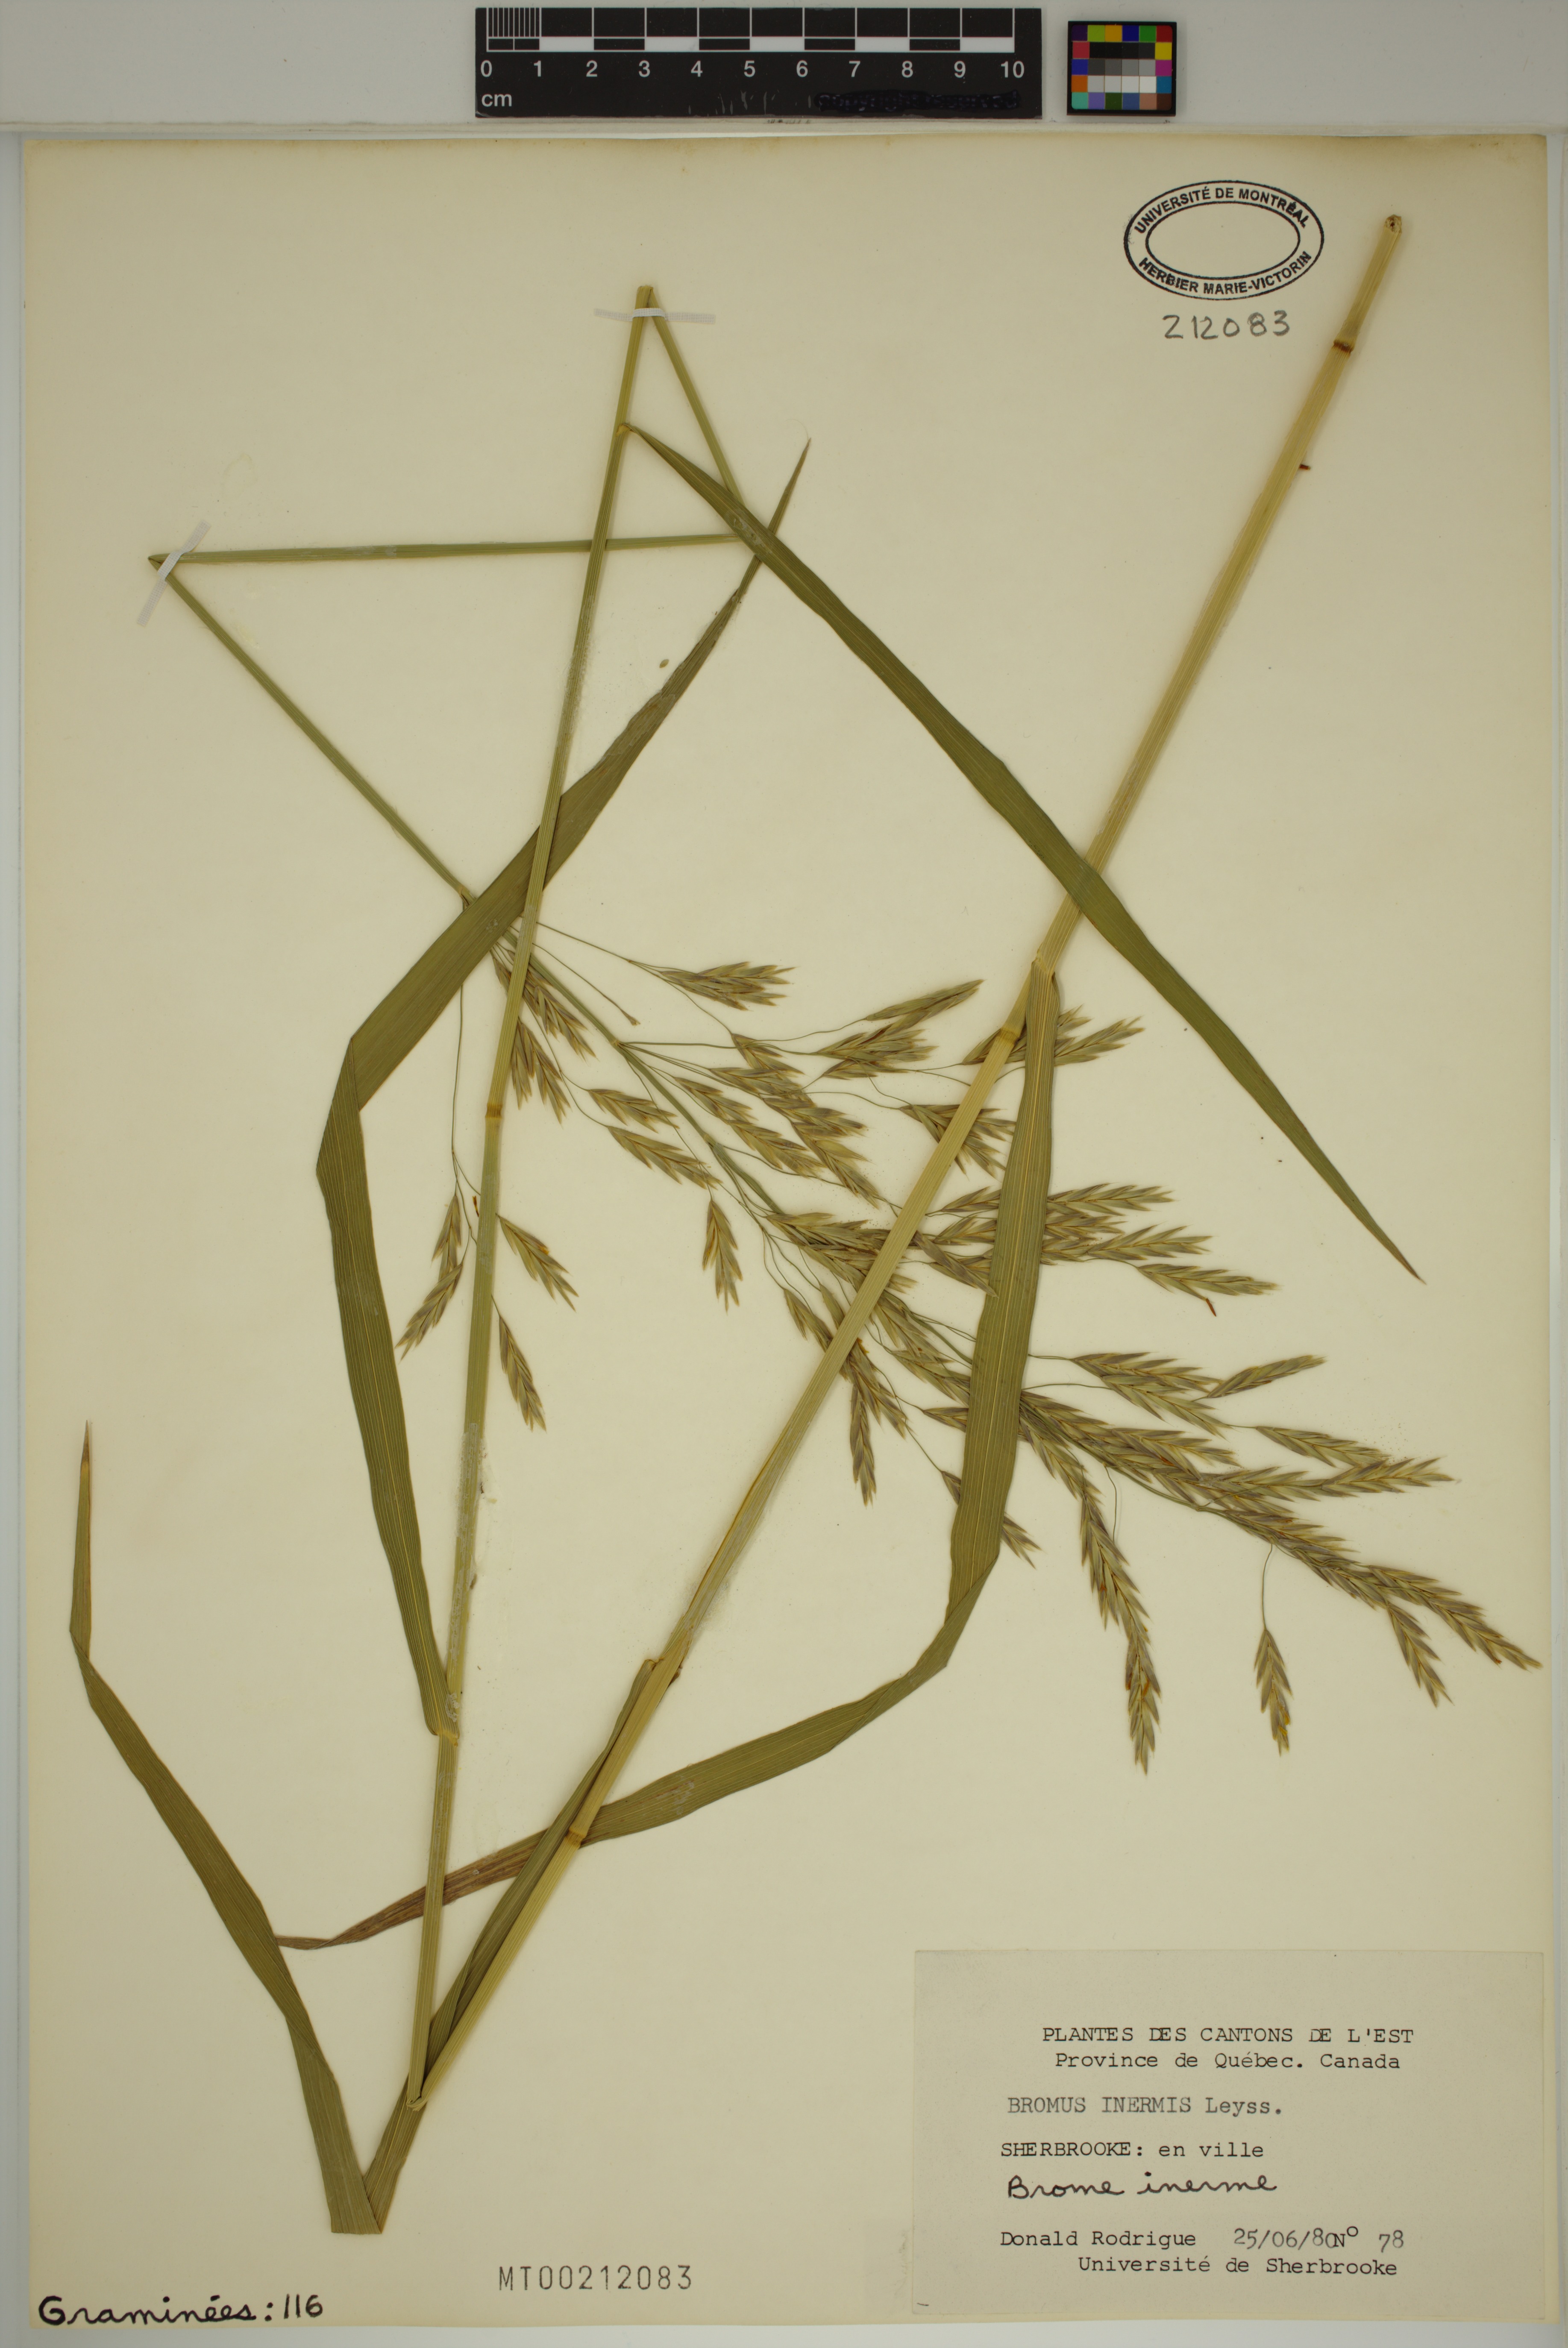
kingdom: Plantae
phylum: Tracheophyta
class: Liliopsida
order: Poales
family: Poaceae
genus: Bromus
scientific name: Bromus inermis
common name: Smooth brome
